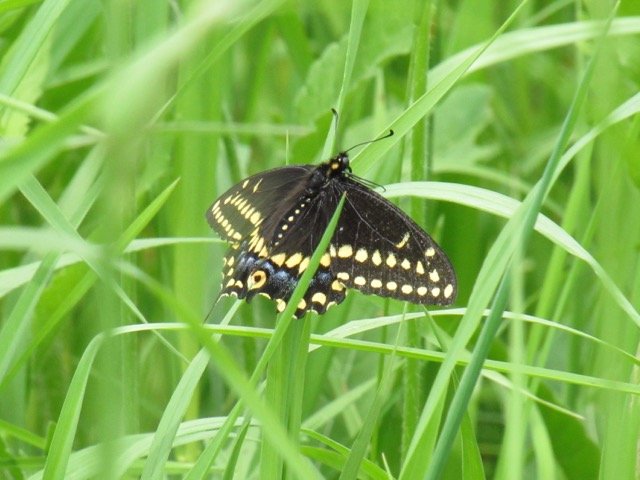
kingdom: Animalia
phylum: Arthropoda
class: Insecta
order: Lepidoptera
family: Papilionidae
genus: Papilio
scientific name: Papilio polyxenes
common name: Black Swallowtail
